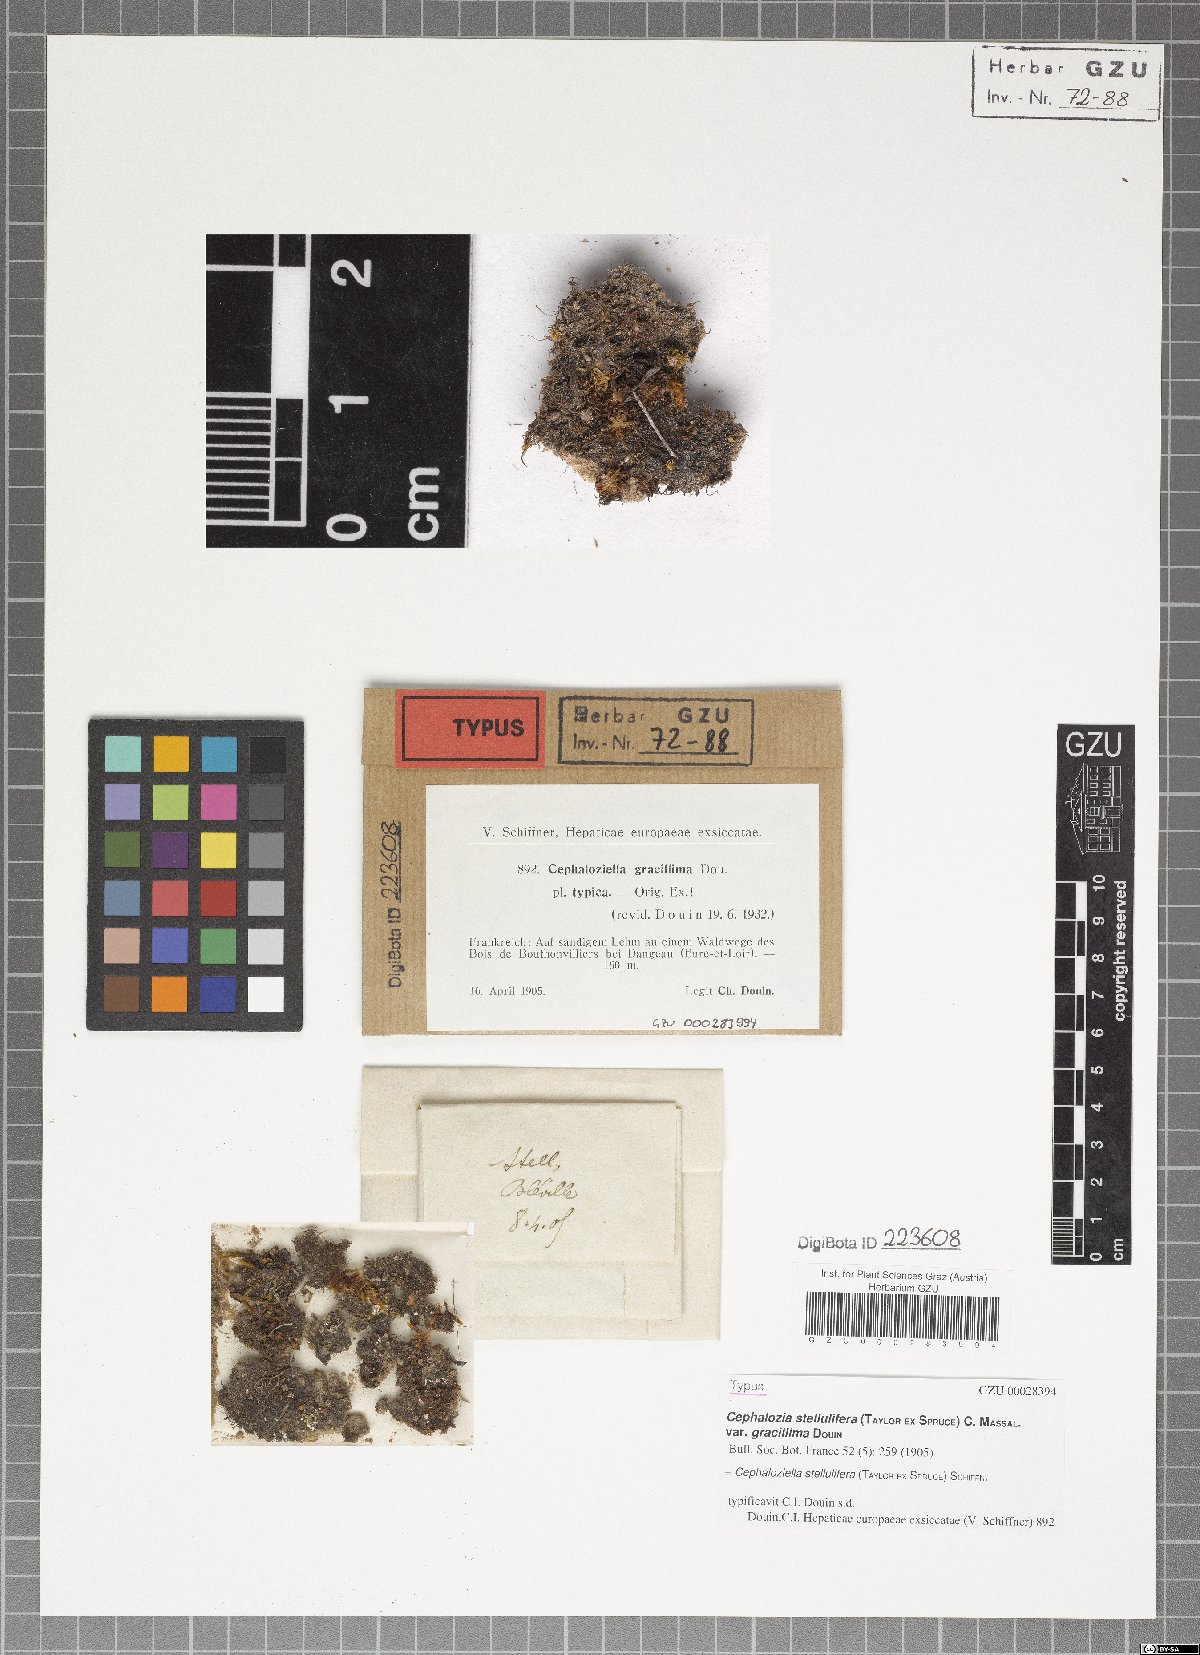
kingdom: Plantae
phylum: Marchantiophyta
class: Jungermanniopsida
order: Jungermanniales
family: Cephaloziellaceae
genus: Cephaloziella
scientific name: Cephaloziella stellulifera
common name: Heath threadwort
